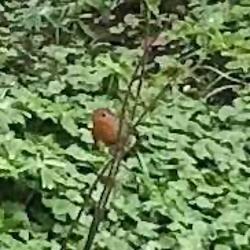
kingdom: Animalia
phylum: Chordata
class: Aves
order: Passeriformes
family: Muscicapidae
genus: Erithacus
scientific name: Erithacus rubecula
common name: Rødhals/rødkælk
